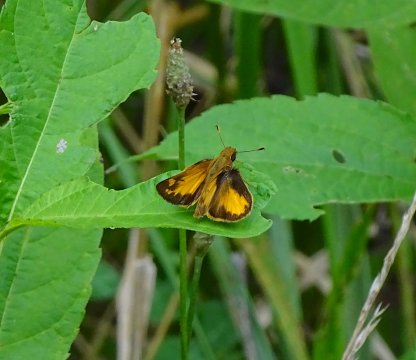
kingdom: Animalia
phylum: Arthropoda
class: Insecta
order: Lepidoptera
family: Hesperiidae
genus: Lon
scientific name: Lon zabulon
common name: Zabulon Skipper
